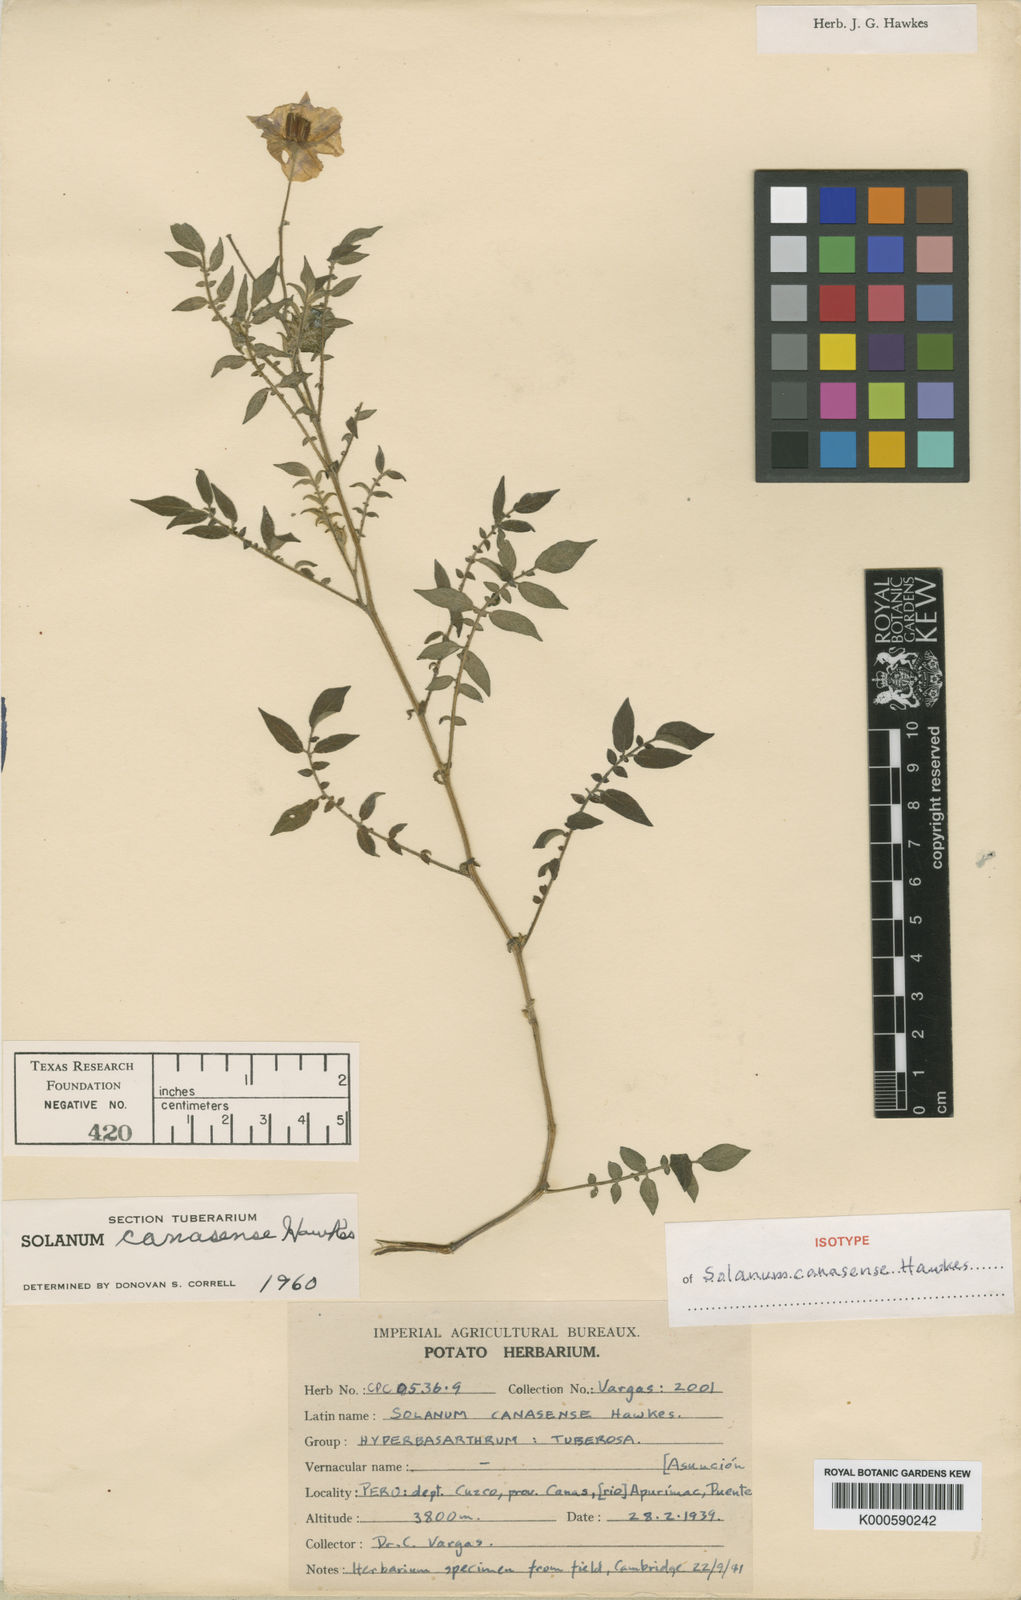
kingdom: Plantae
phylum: Tracheophyta
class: Magnoliopsida
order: Solanales
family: Solanaceae
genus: Solanum
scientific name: Solanum candolleanum
